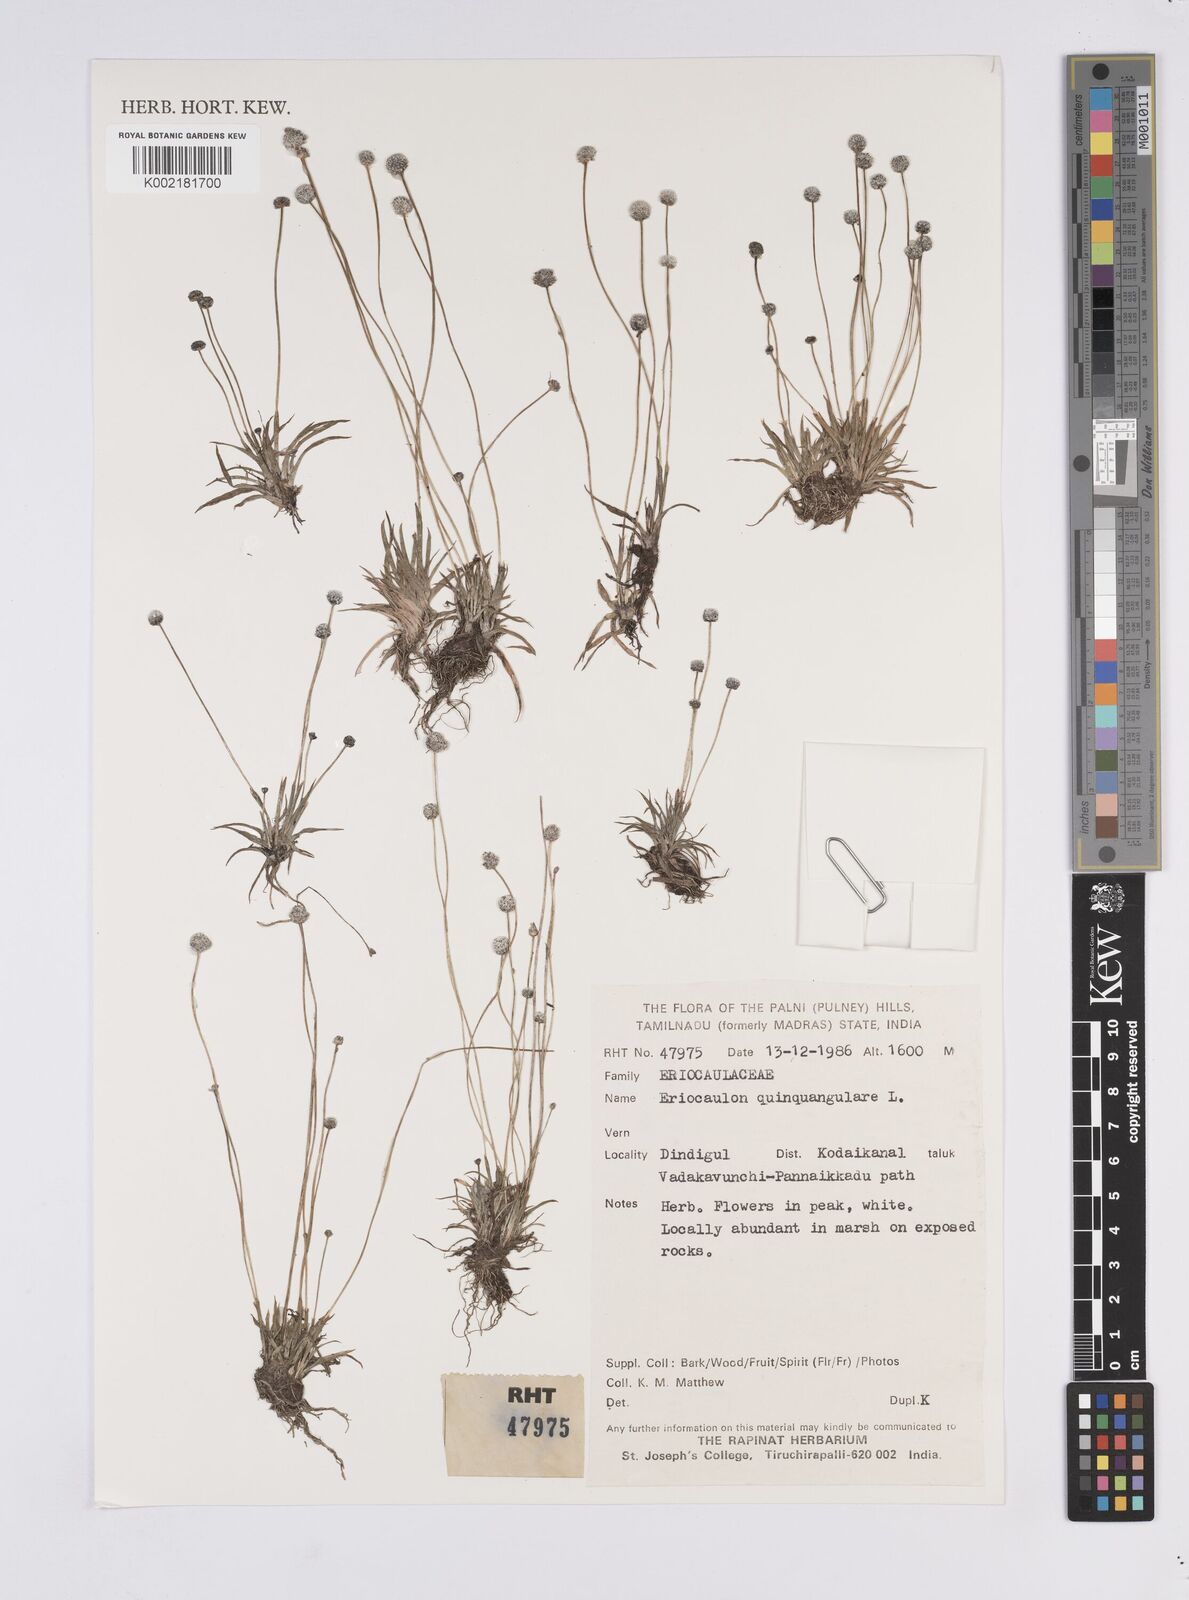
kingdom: Plantae
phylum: Tracheophyta
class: Liliopsida
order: Poales
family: Eriocaulaceae
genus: Eriocaulon
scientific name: Eriocaulon quinquangulare
